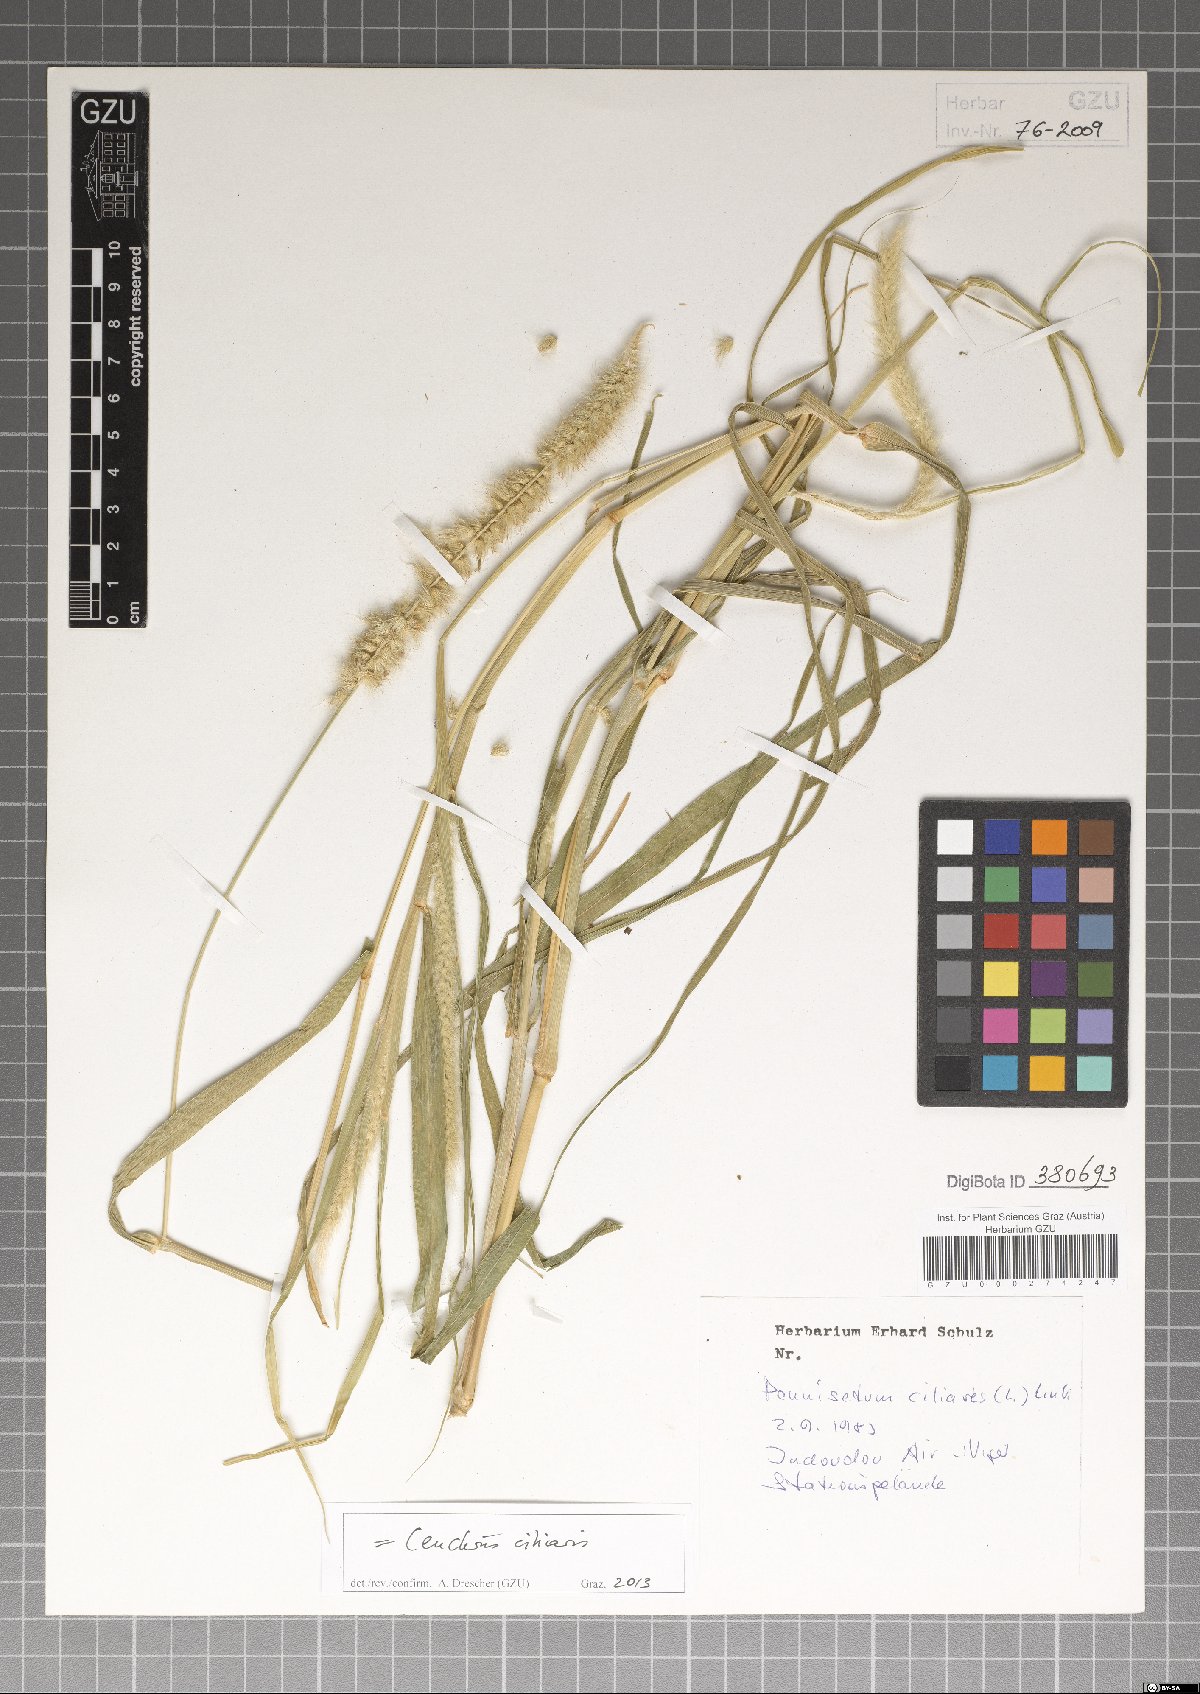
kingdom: Plantae
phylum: Tracheophyta
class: Liliopsida
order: Poales
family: Poaceae
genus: Cenchrus
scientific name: Cenchrus ciliaris
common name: Buffelgrass
